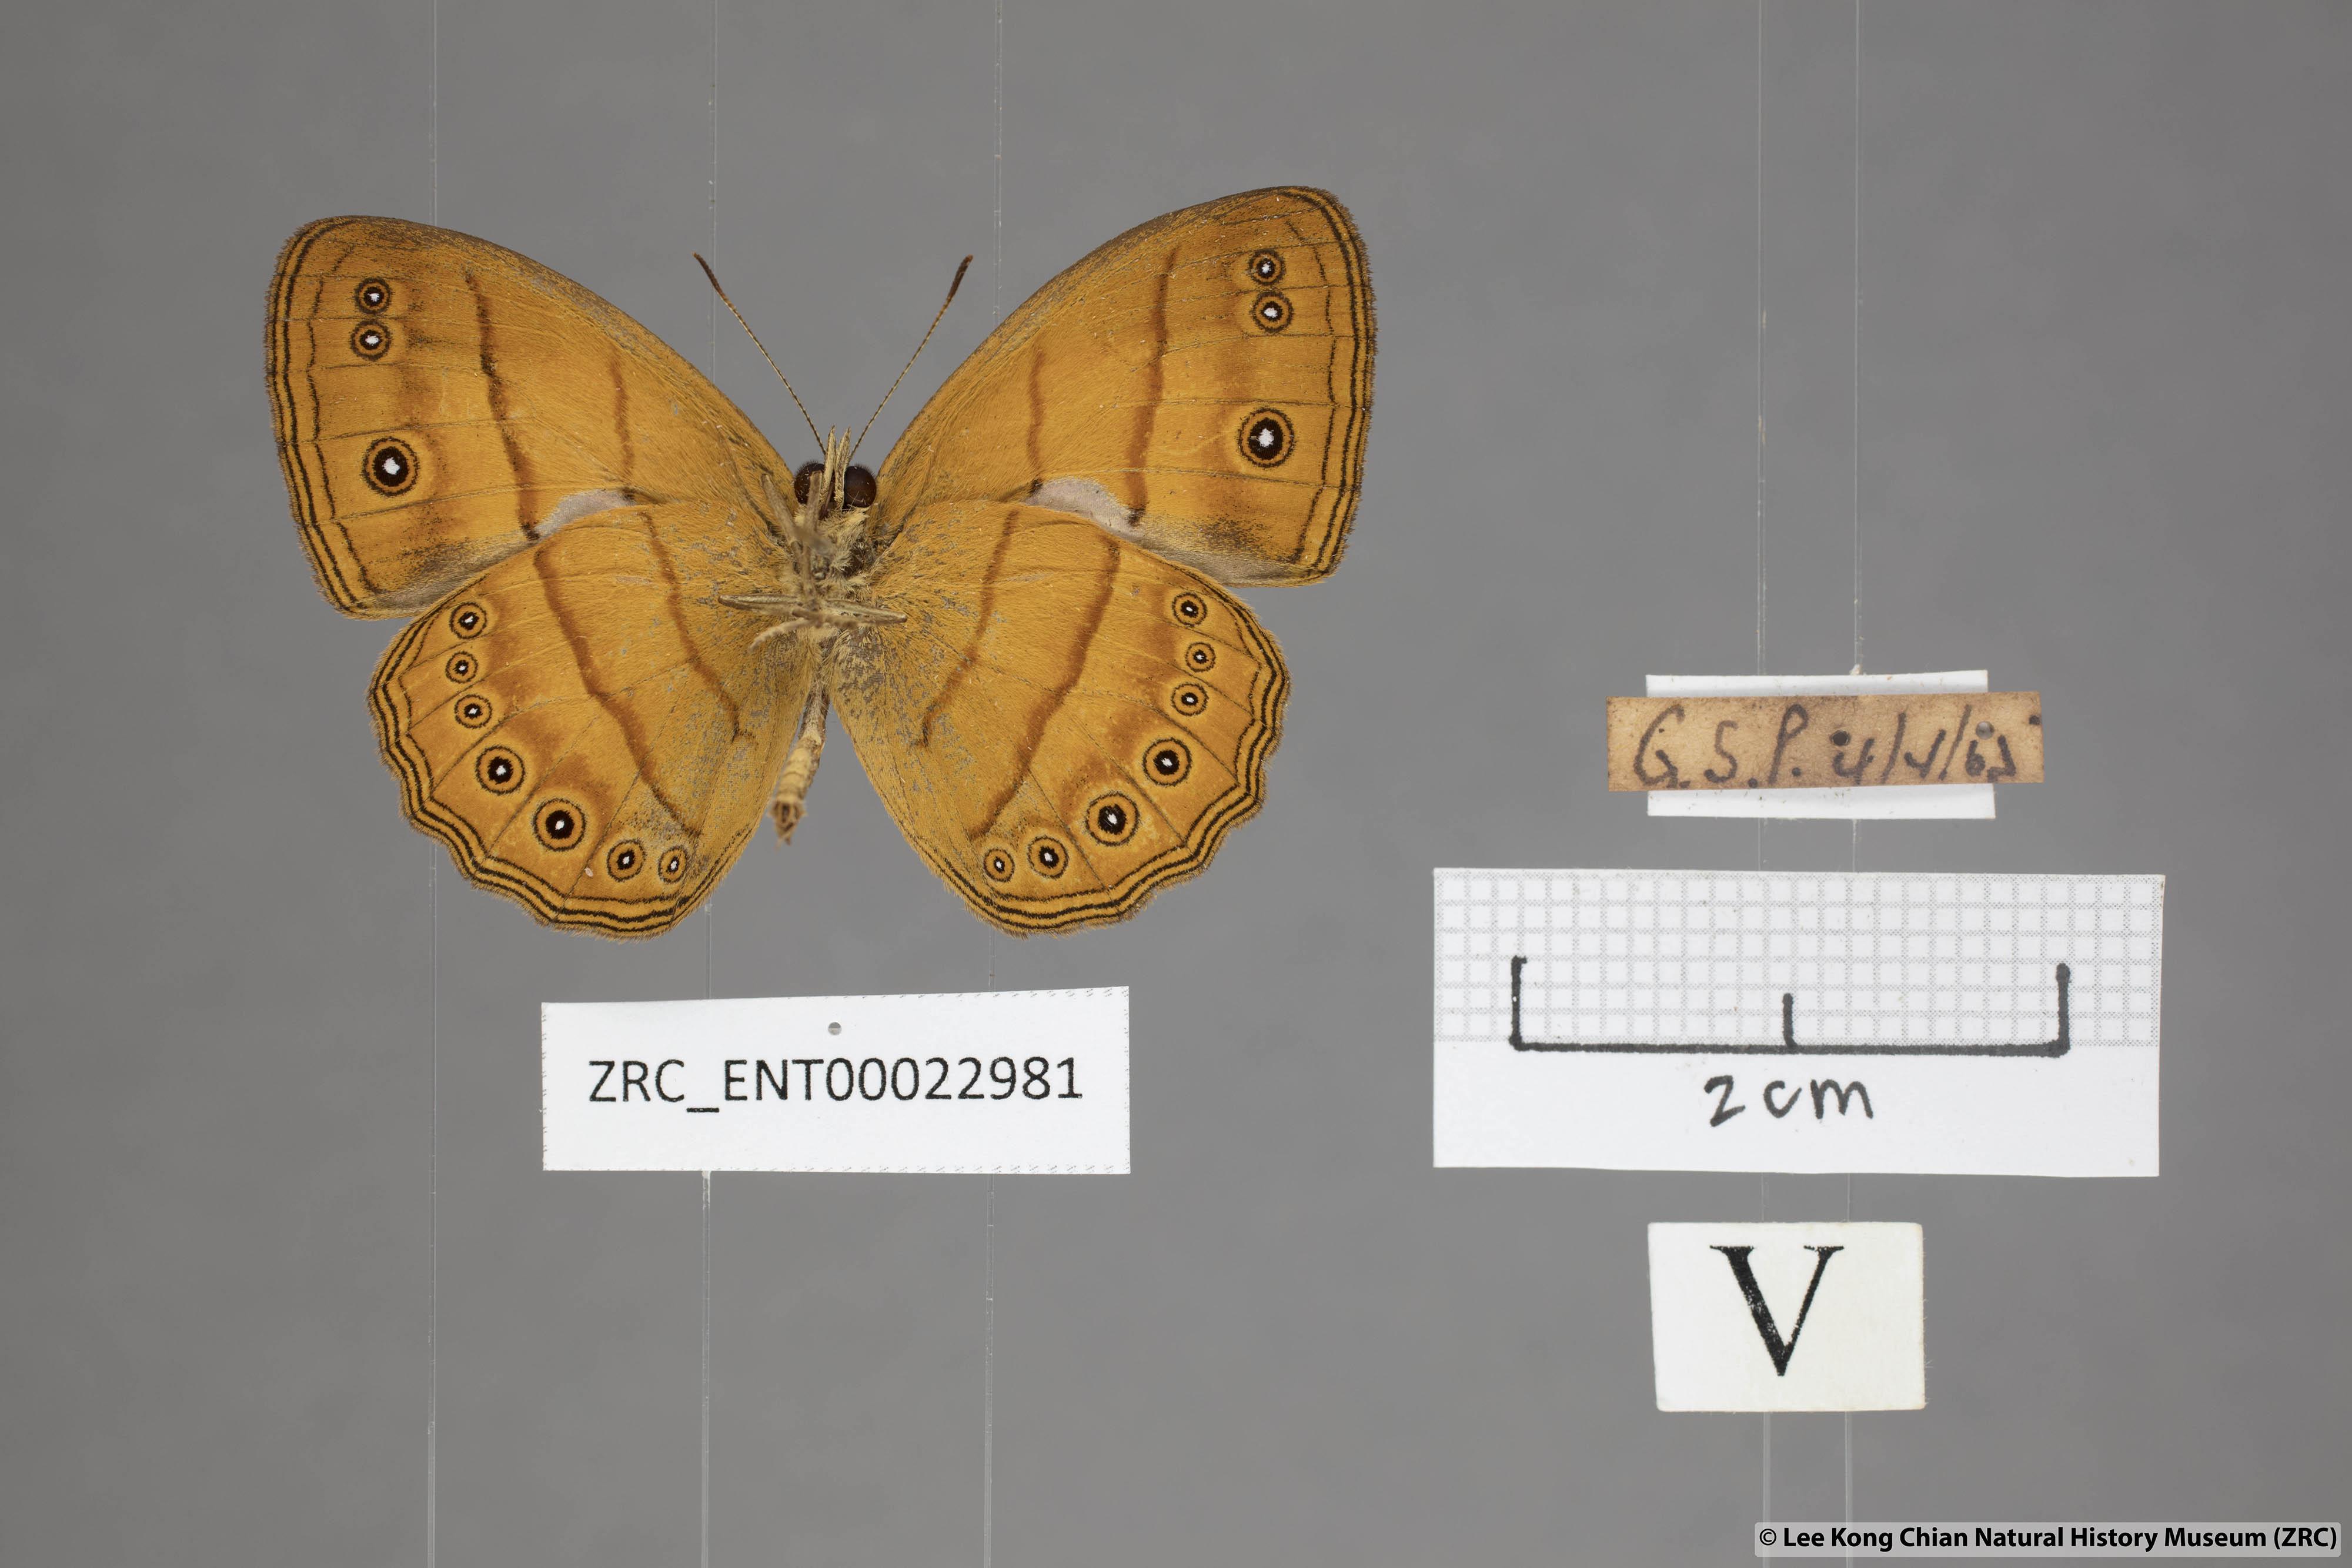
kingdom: Animalia
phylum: Arthropoda
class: Insecta
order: Lepidoptera
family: Nymphalidae
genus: Mycalesis
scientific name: Mycalesis patiana
